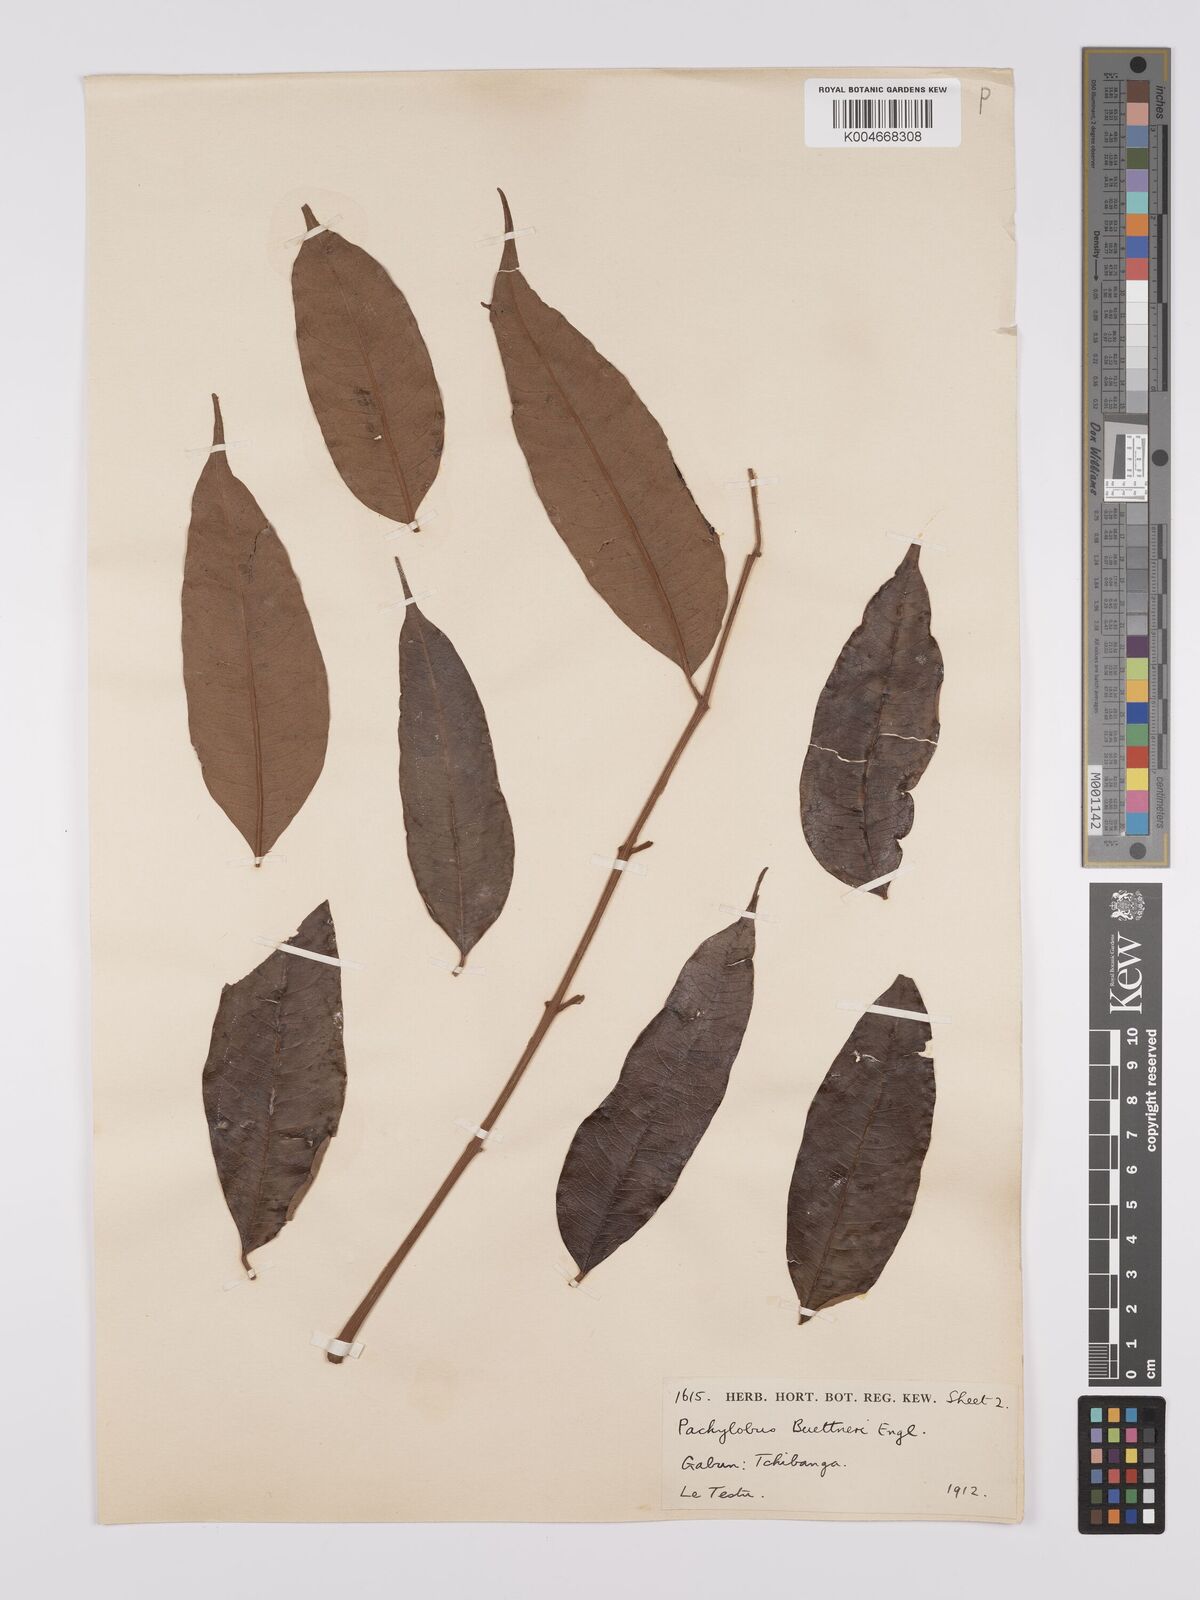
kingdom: Plantae
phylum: Tracheophyta
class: Magnoliopsida
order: Sapindales
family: Burseraceae
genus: Pachylobus
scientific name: Pachylobus buettneri
